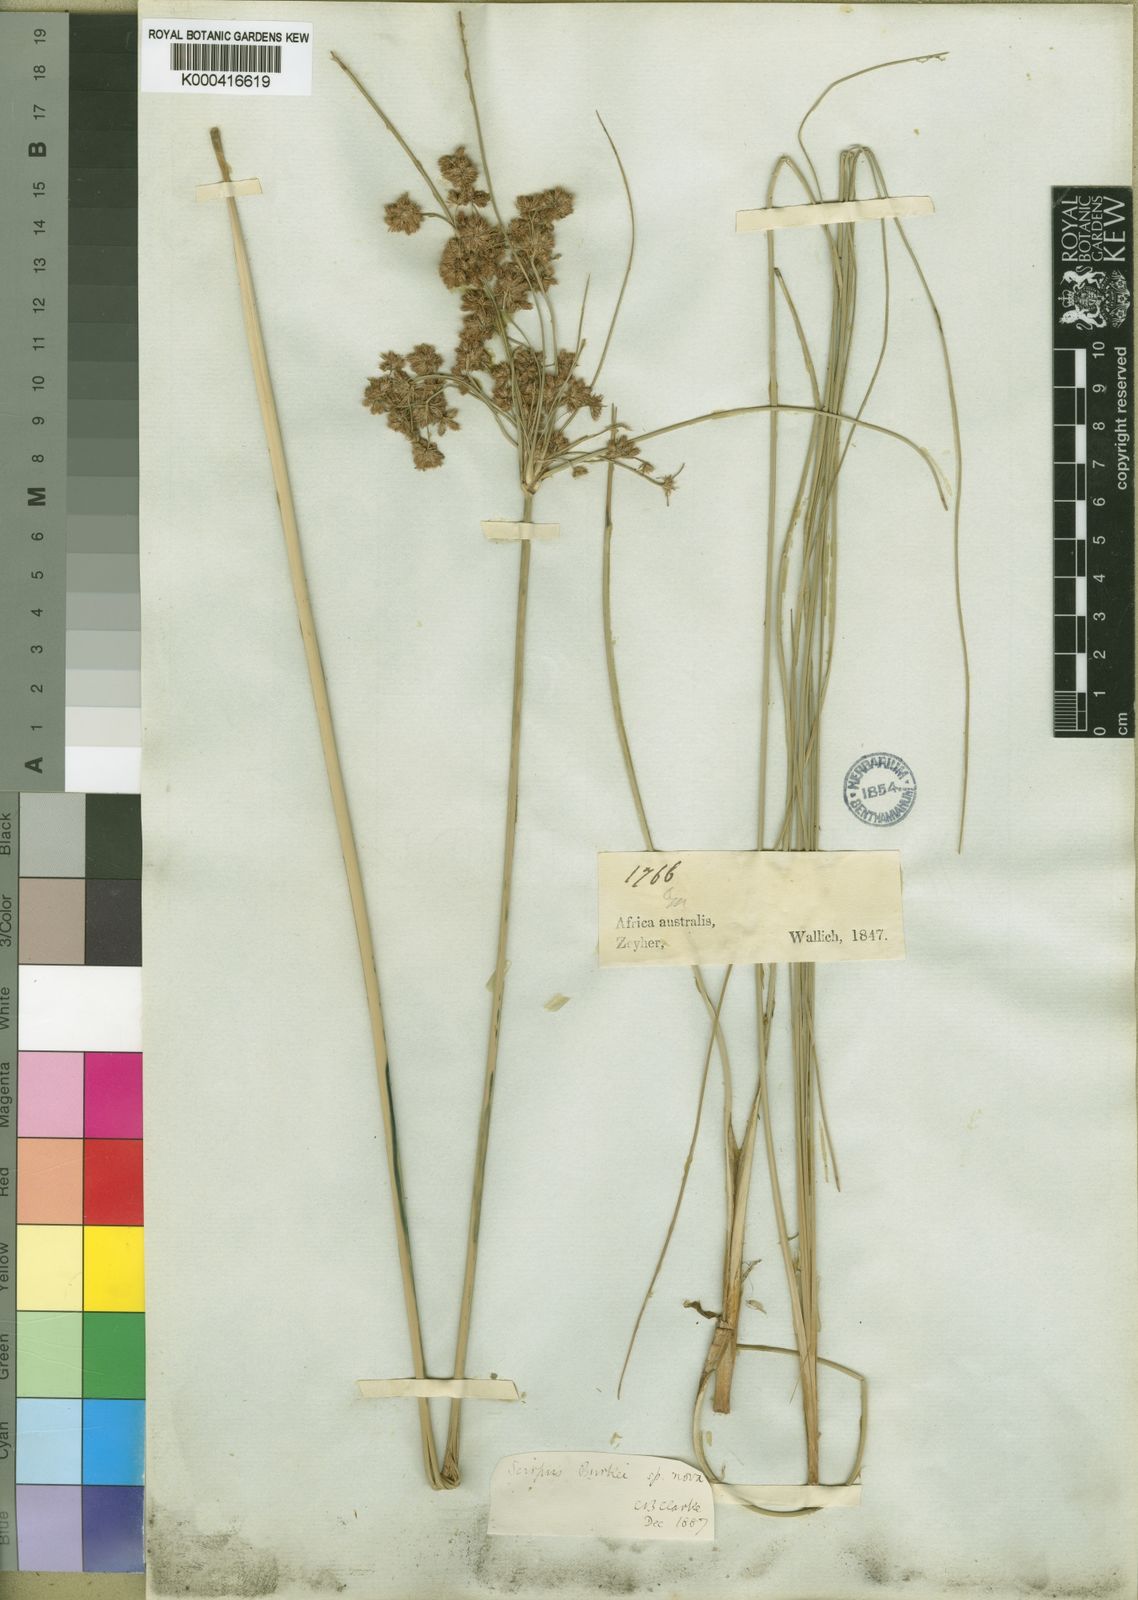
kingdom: Plantae
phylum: Tracheophyta
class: Liliopsida
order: Poales
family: Cyperaceae
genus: Scirpoides
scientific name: Scirpoides burkei
